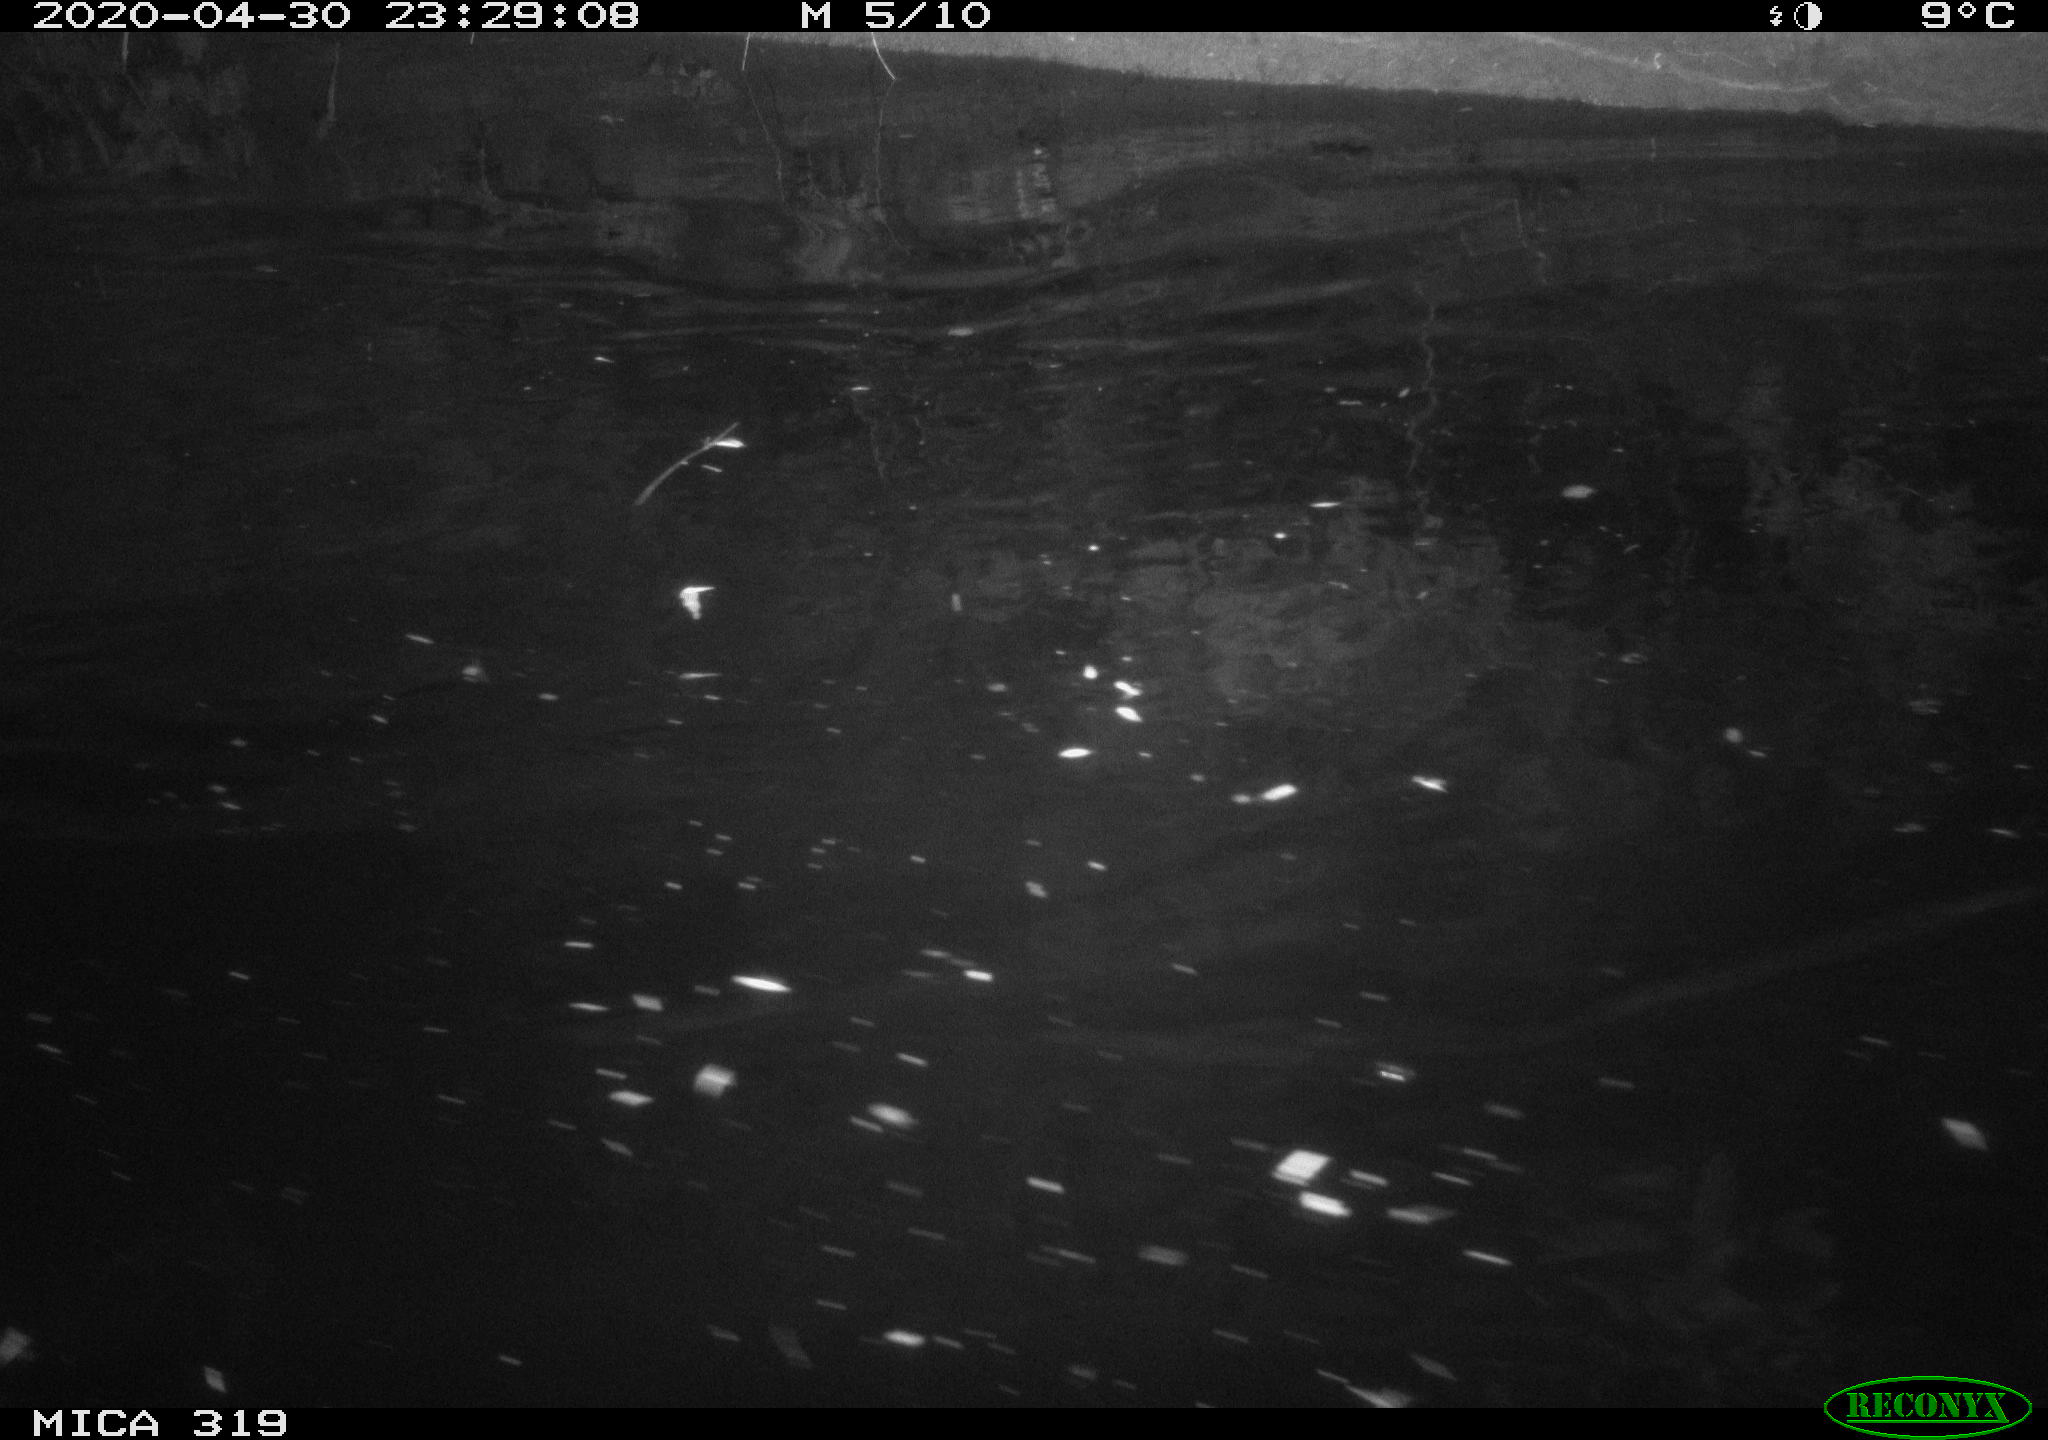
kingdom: Animalia
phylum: Chordata
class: Aves
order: Anseriformes
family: Anatidae
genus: Anas
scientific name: Anas platyrhynchos
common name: Mallard
